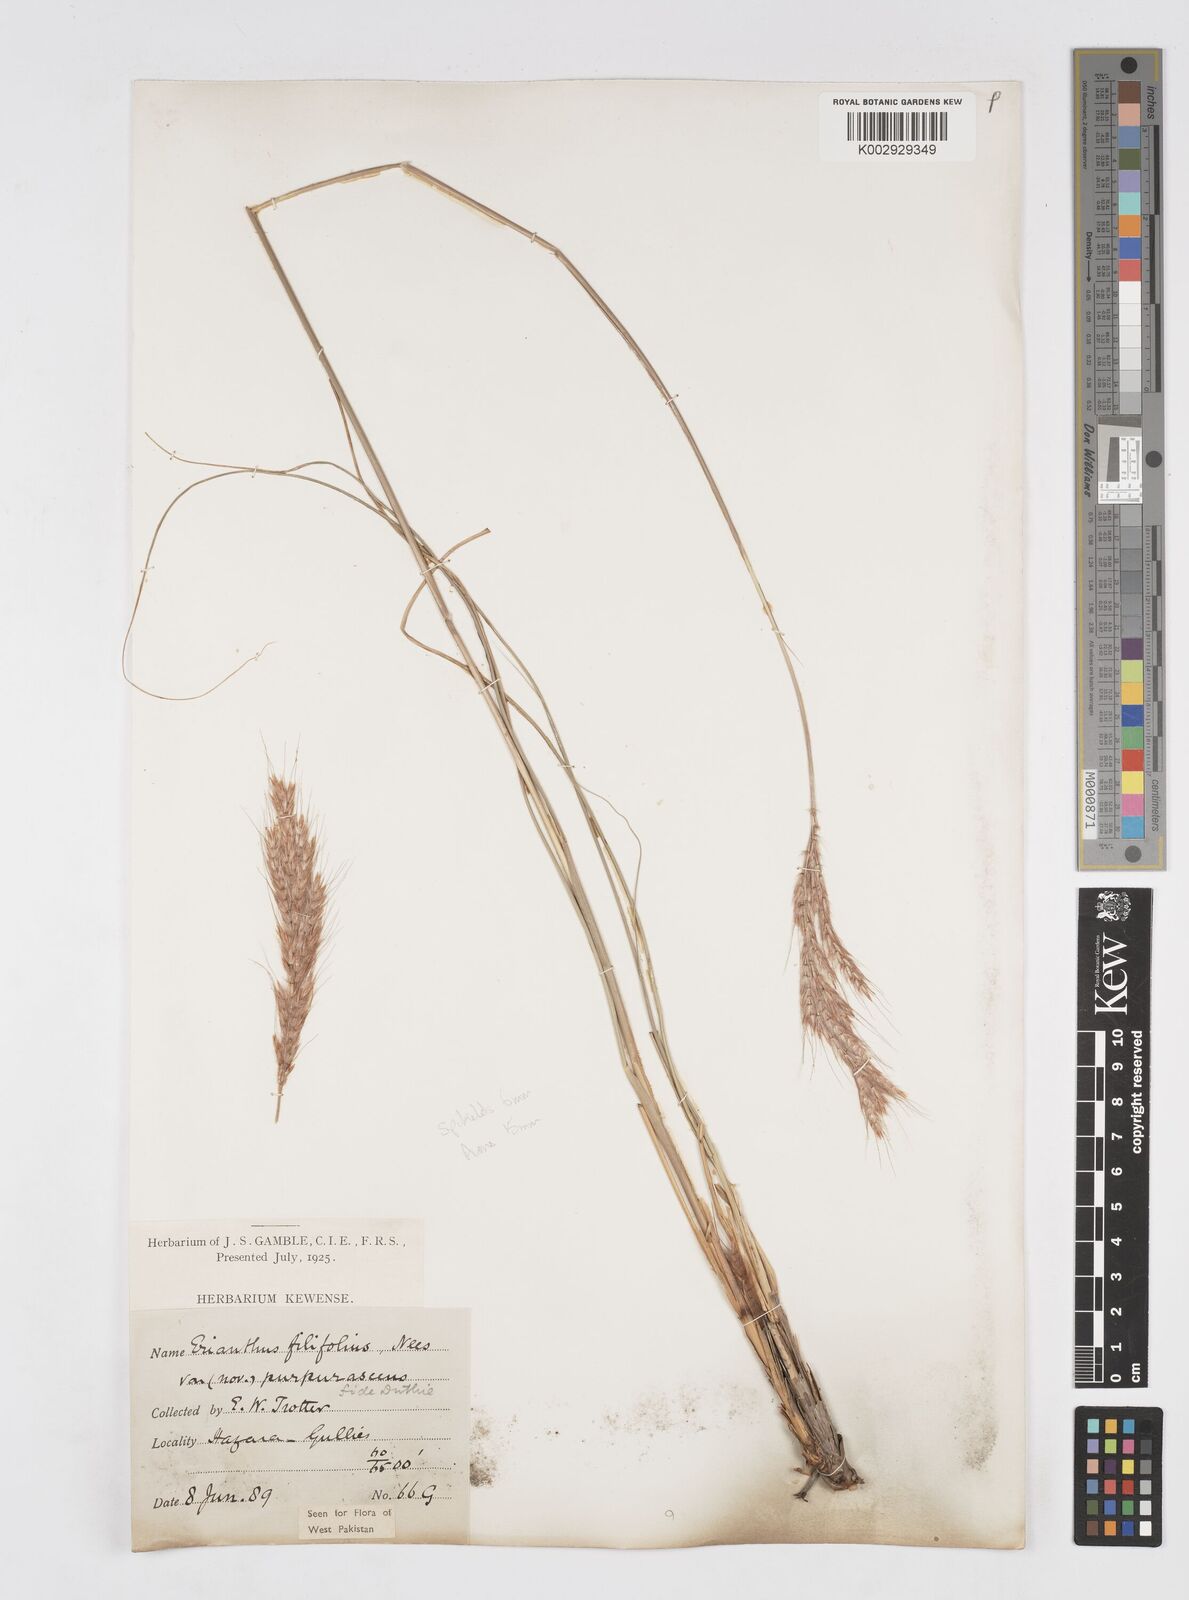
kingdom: Plantae
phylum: Tracheophyta
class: Liliopsida
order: Poales
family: Poaceae
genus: Saccharum
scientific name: Saccharum filifolium
